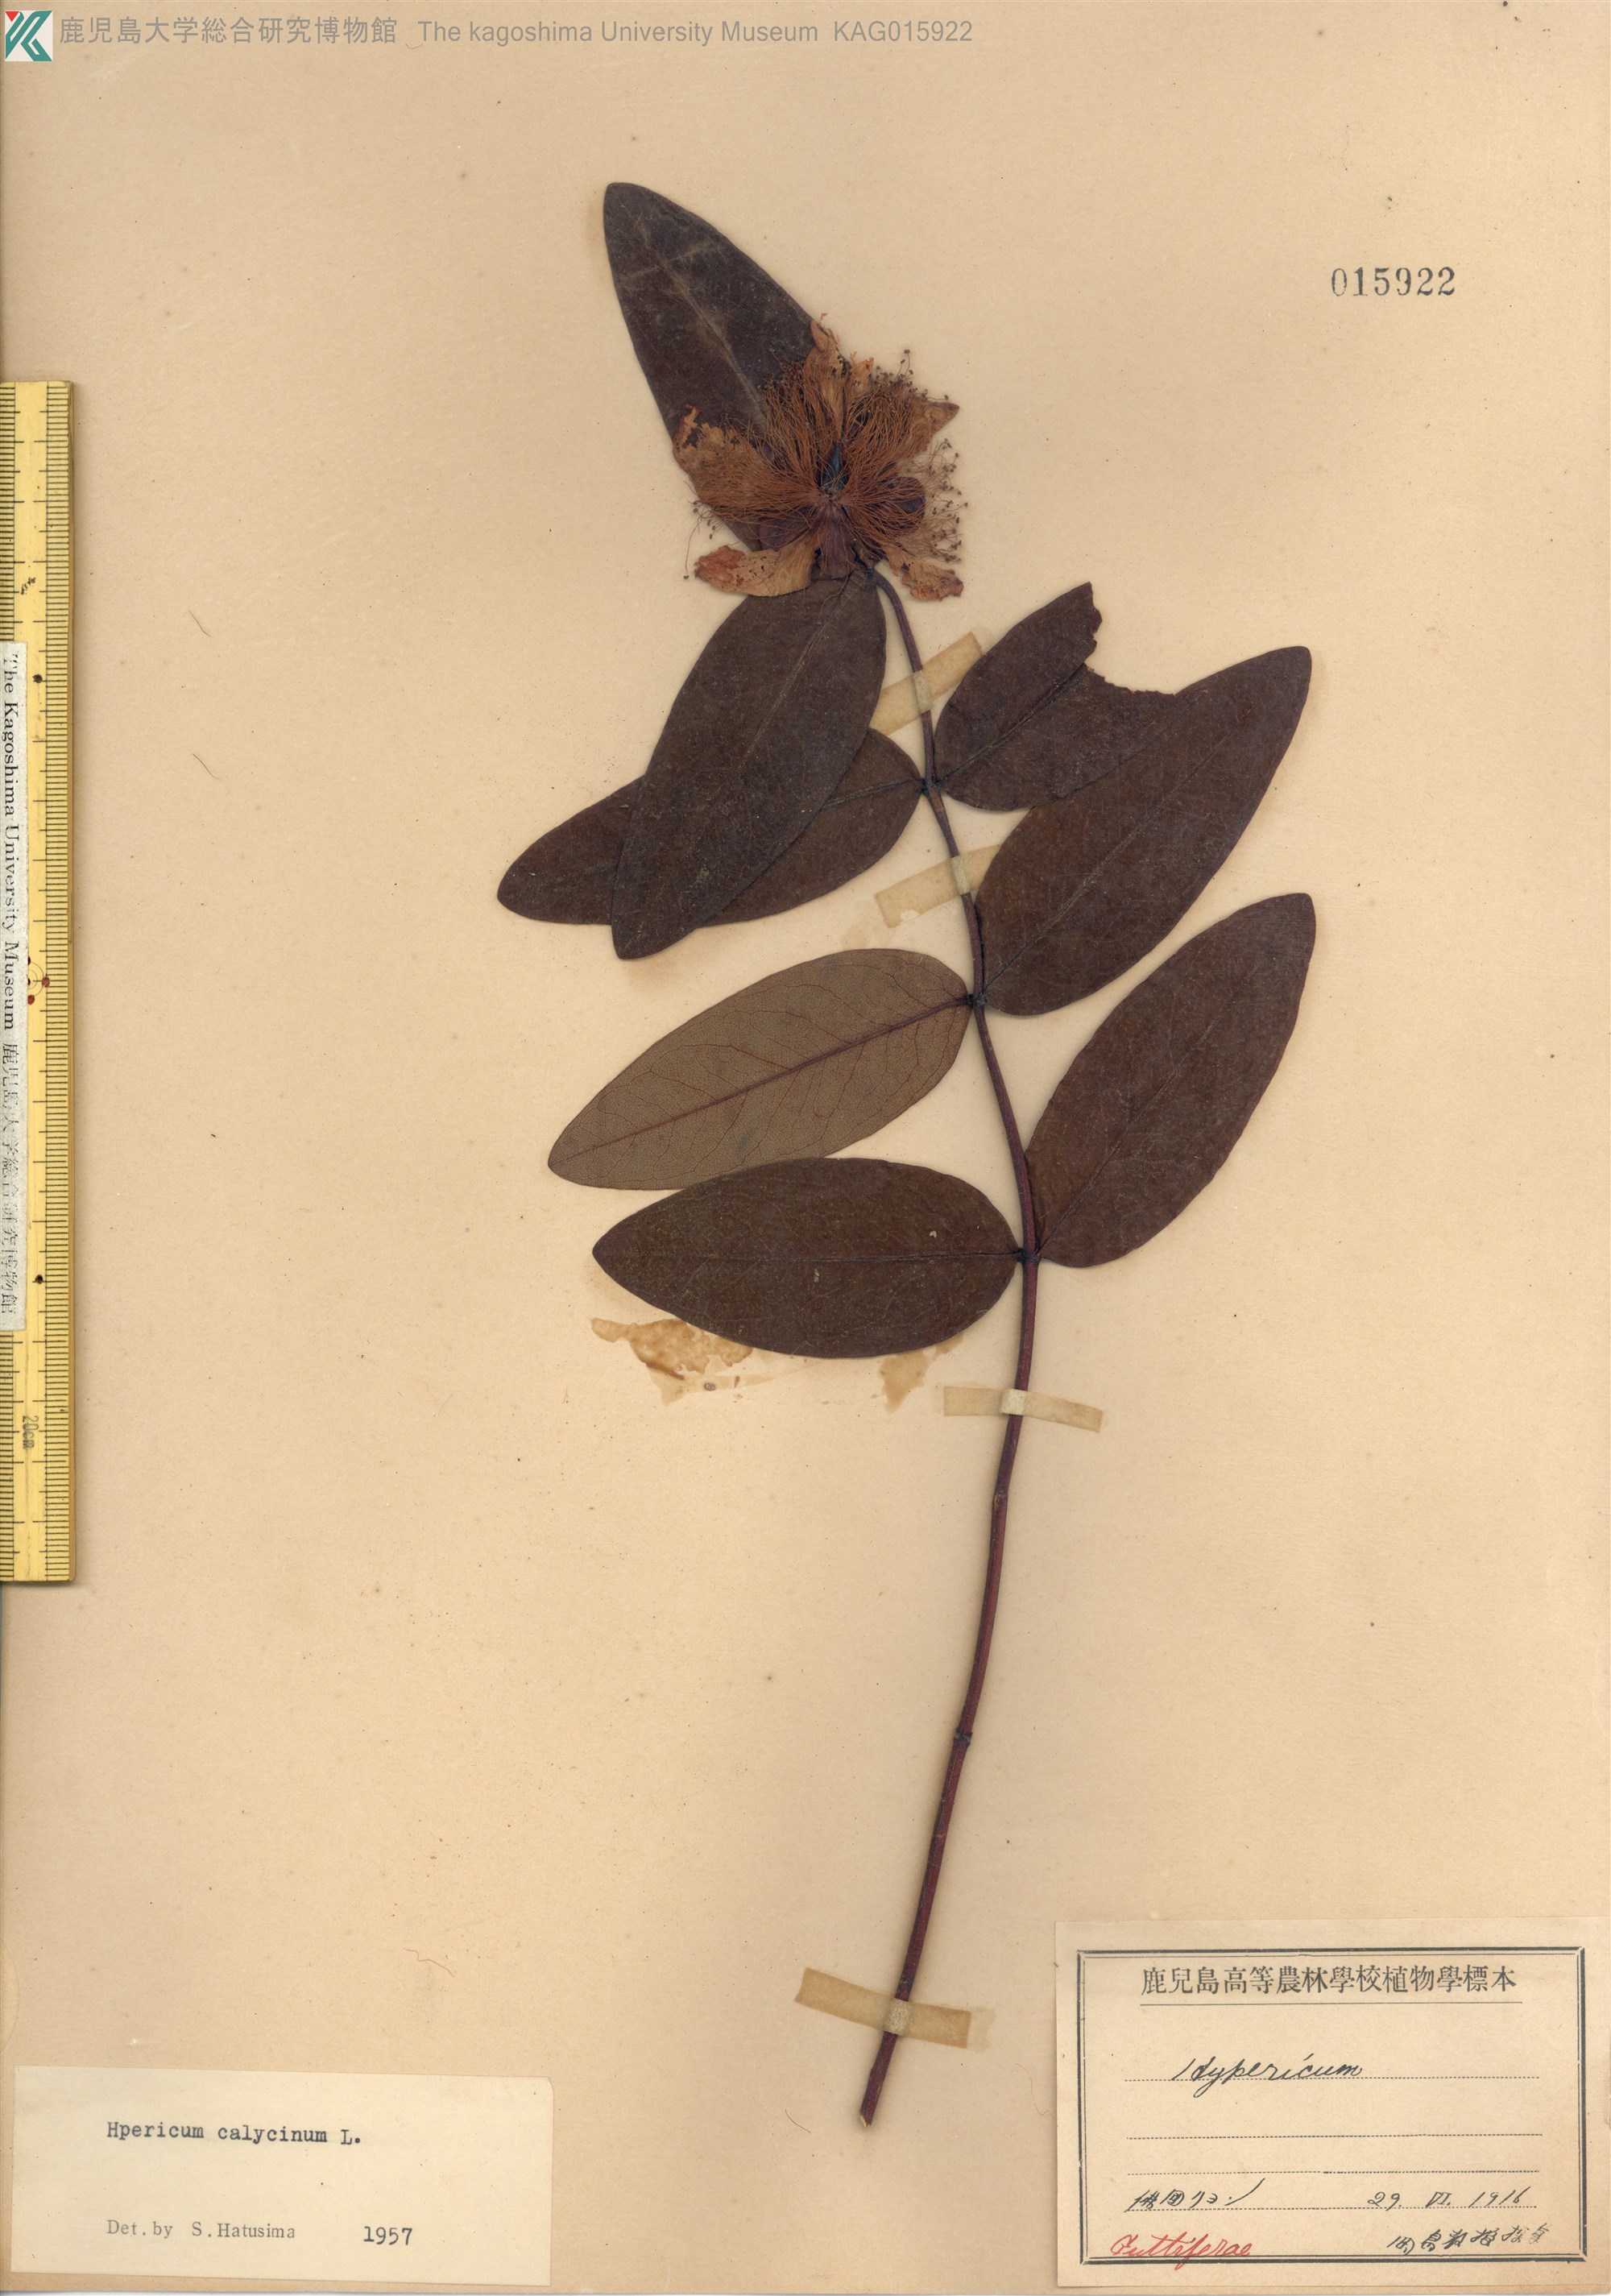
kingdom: Plantae
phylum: Tracheophyta
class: Magnoliopsida
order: Malpighiales
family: Hypericaceae
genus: Hypericum
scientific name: Hypericum calycinum
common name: Rose-of-sharon
